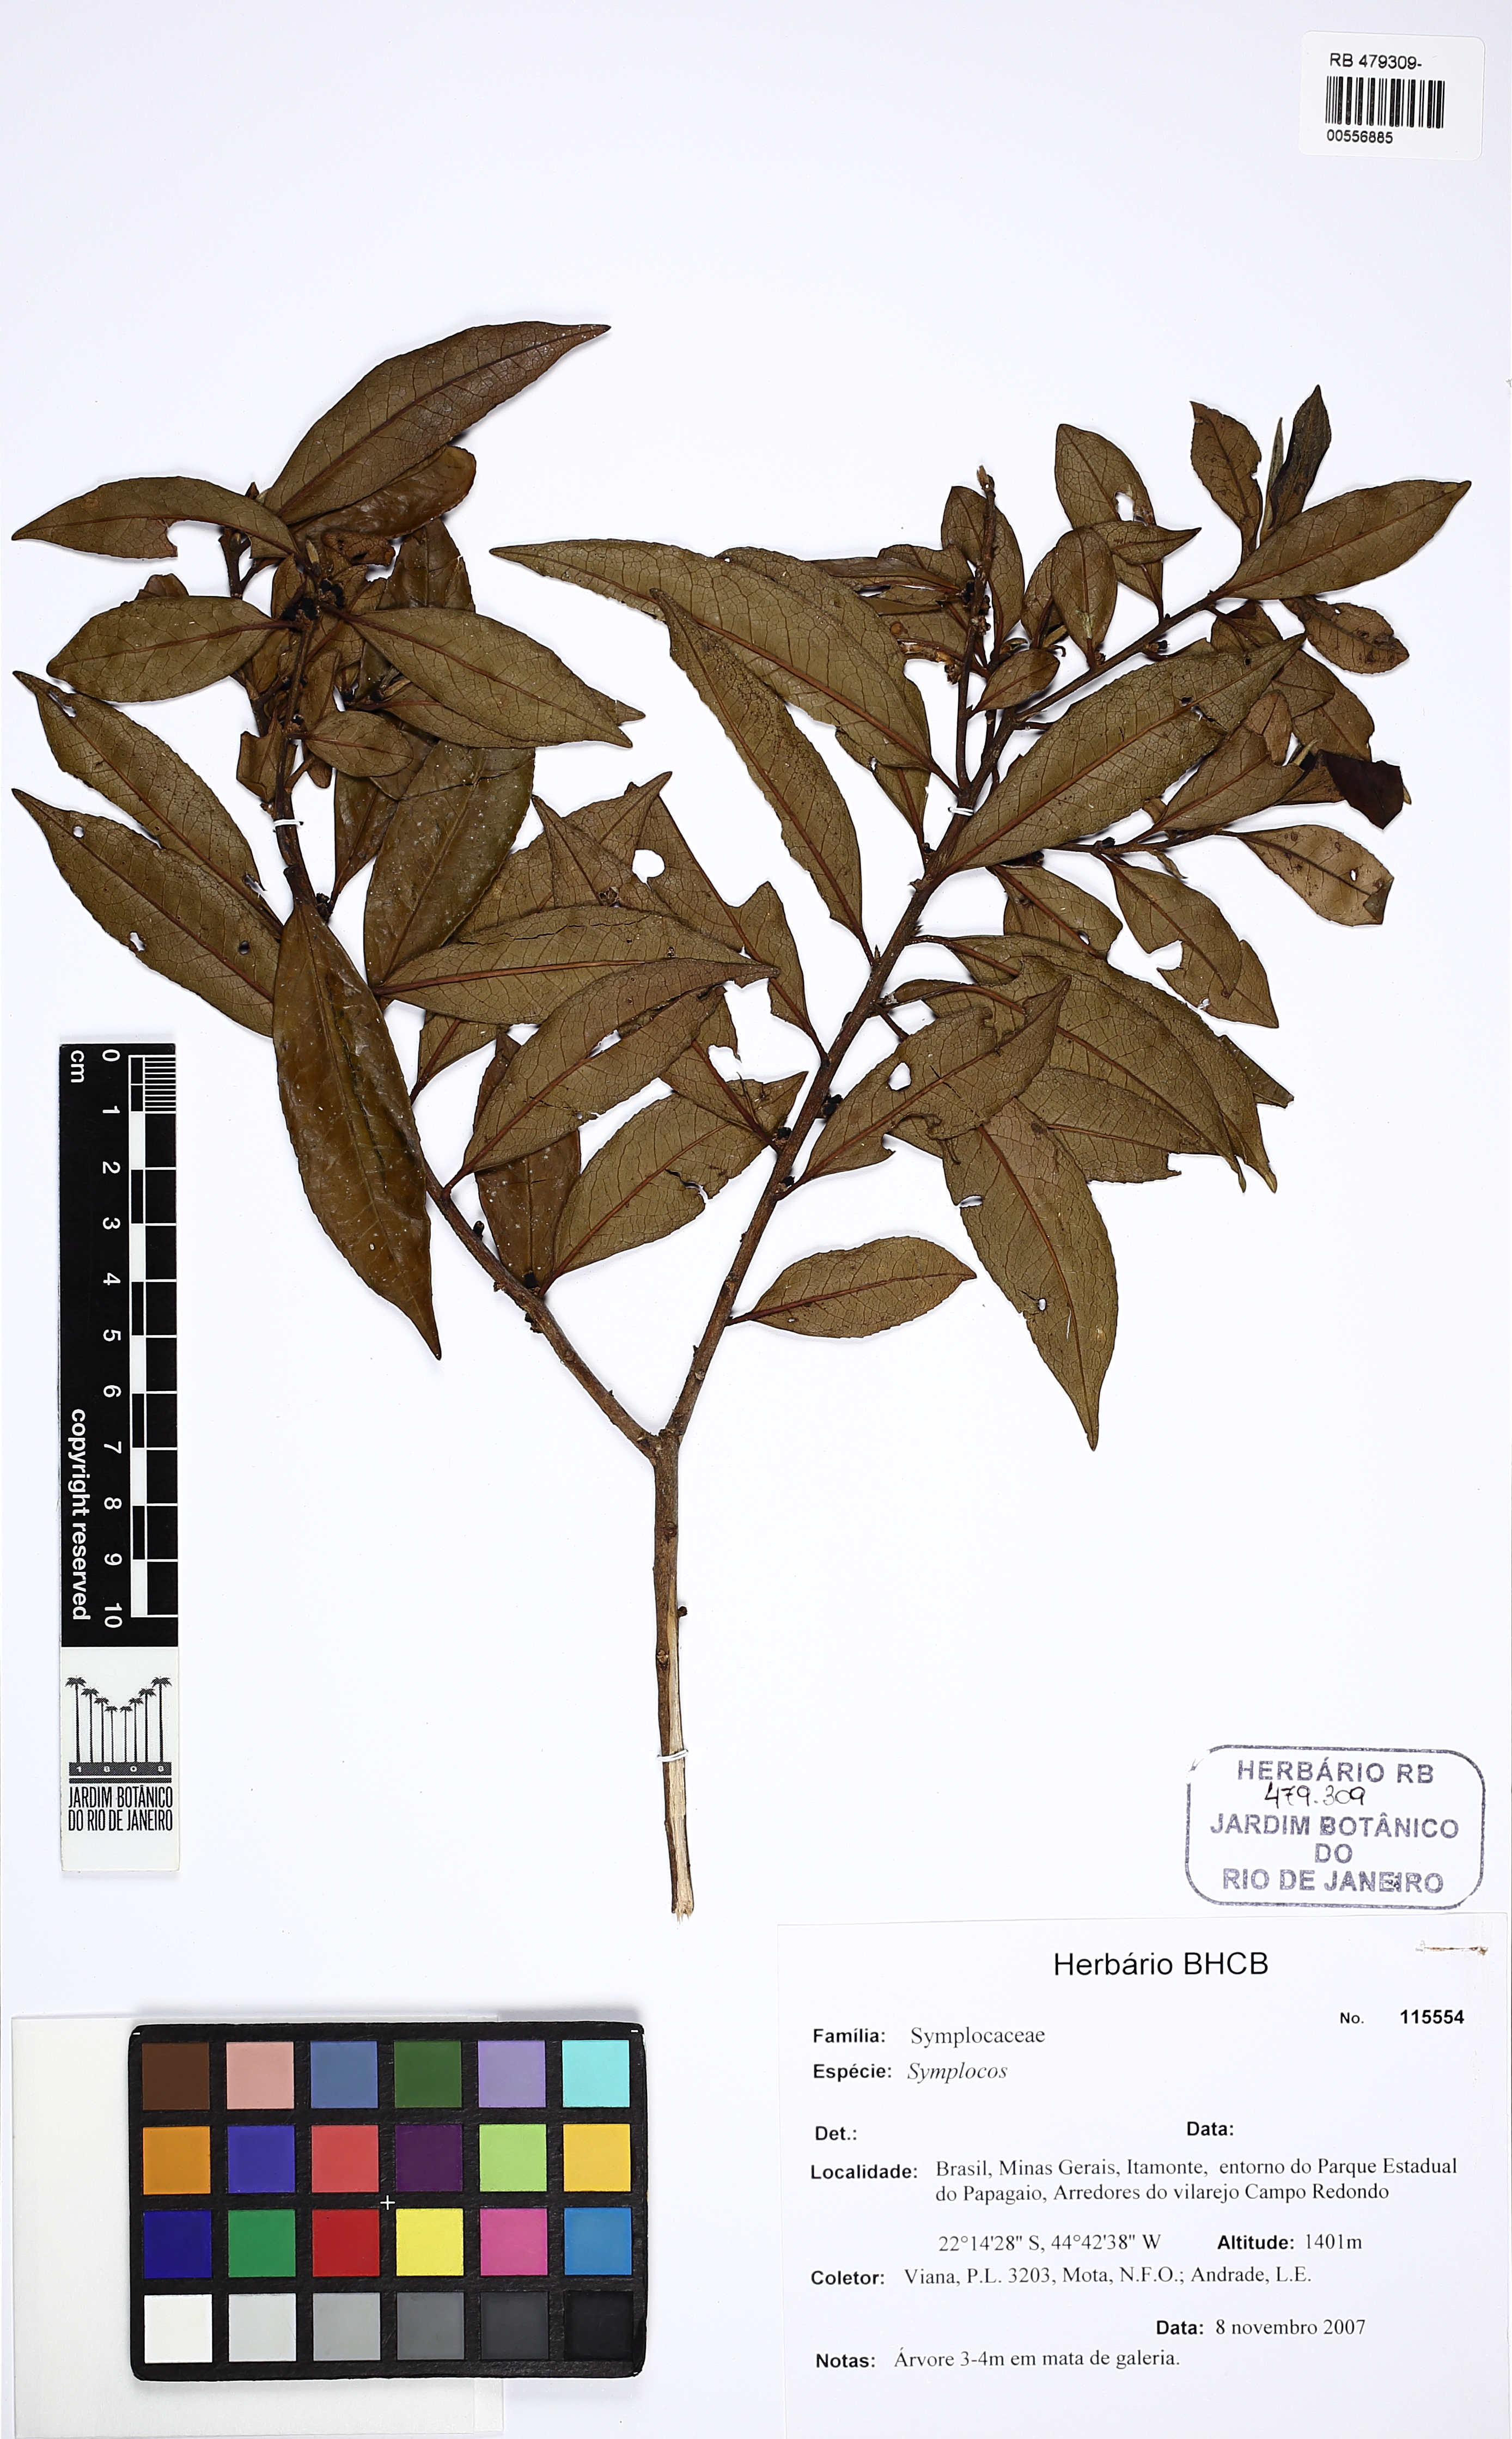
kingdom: Plantae
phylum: Tracheophyta
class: Magnoliopsida
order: Ericales
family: Symplocaceae
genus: Symplocos
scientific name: Symplocos
